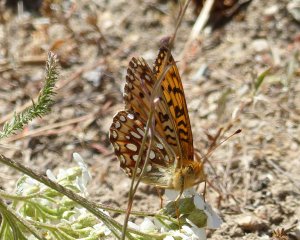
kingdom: Animalia
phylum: Arthropoda
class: Insecta
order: Lepidoptera
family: Nymphalidae
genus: Speyeria
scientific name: Speyeria zerene
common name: Zerene Fritillary
